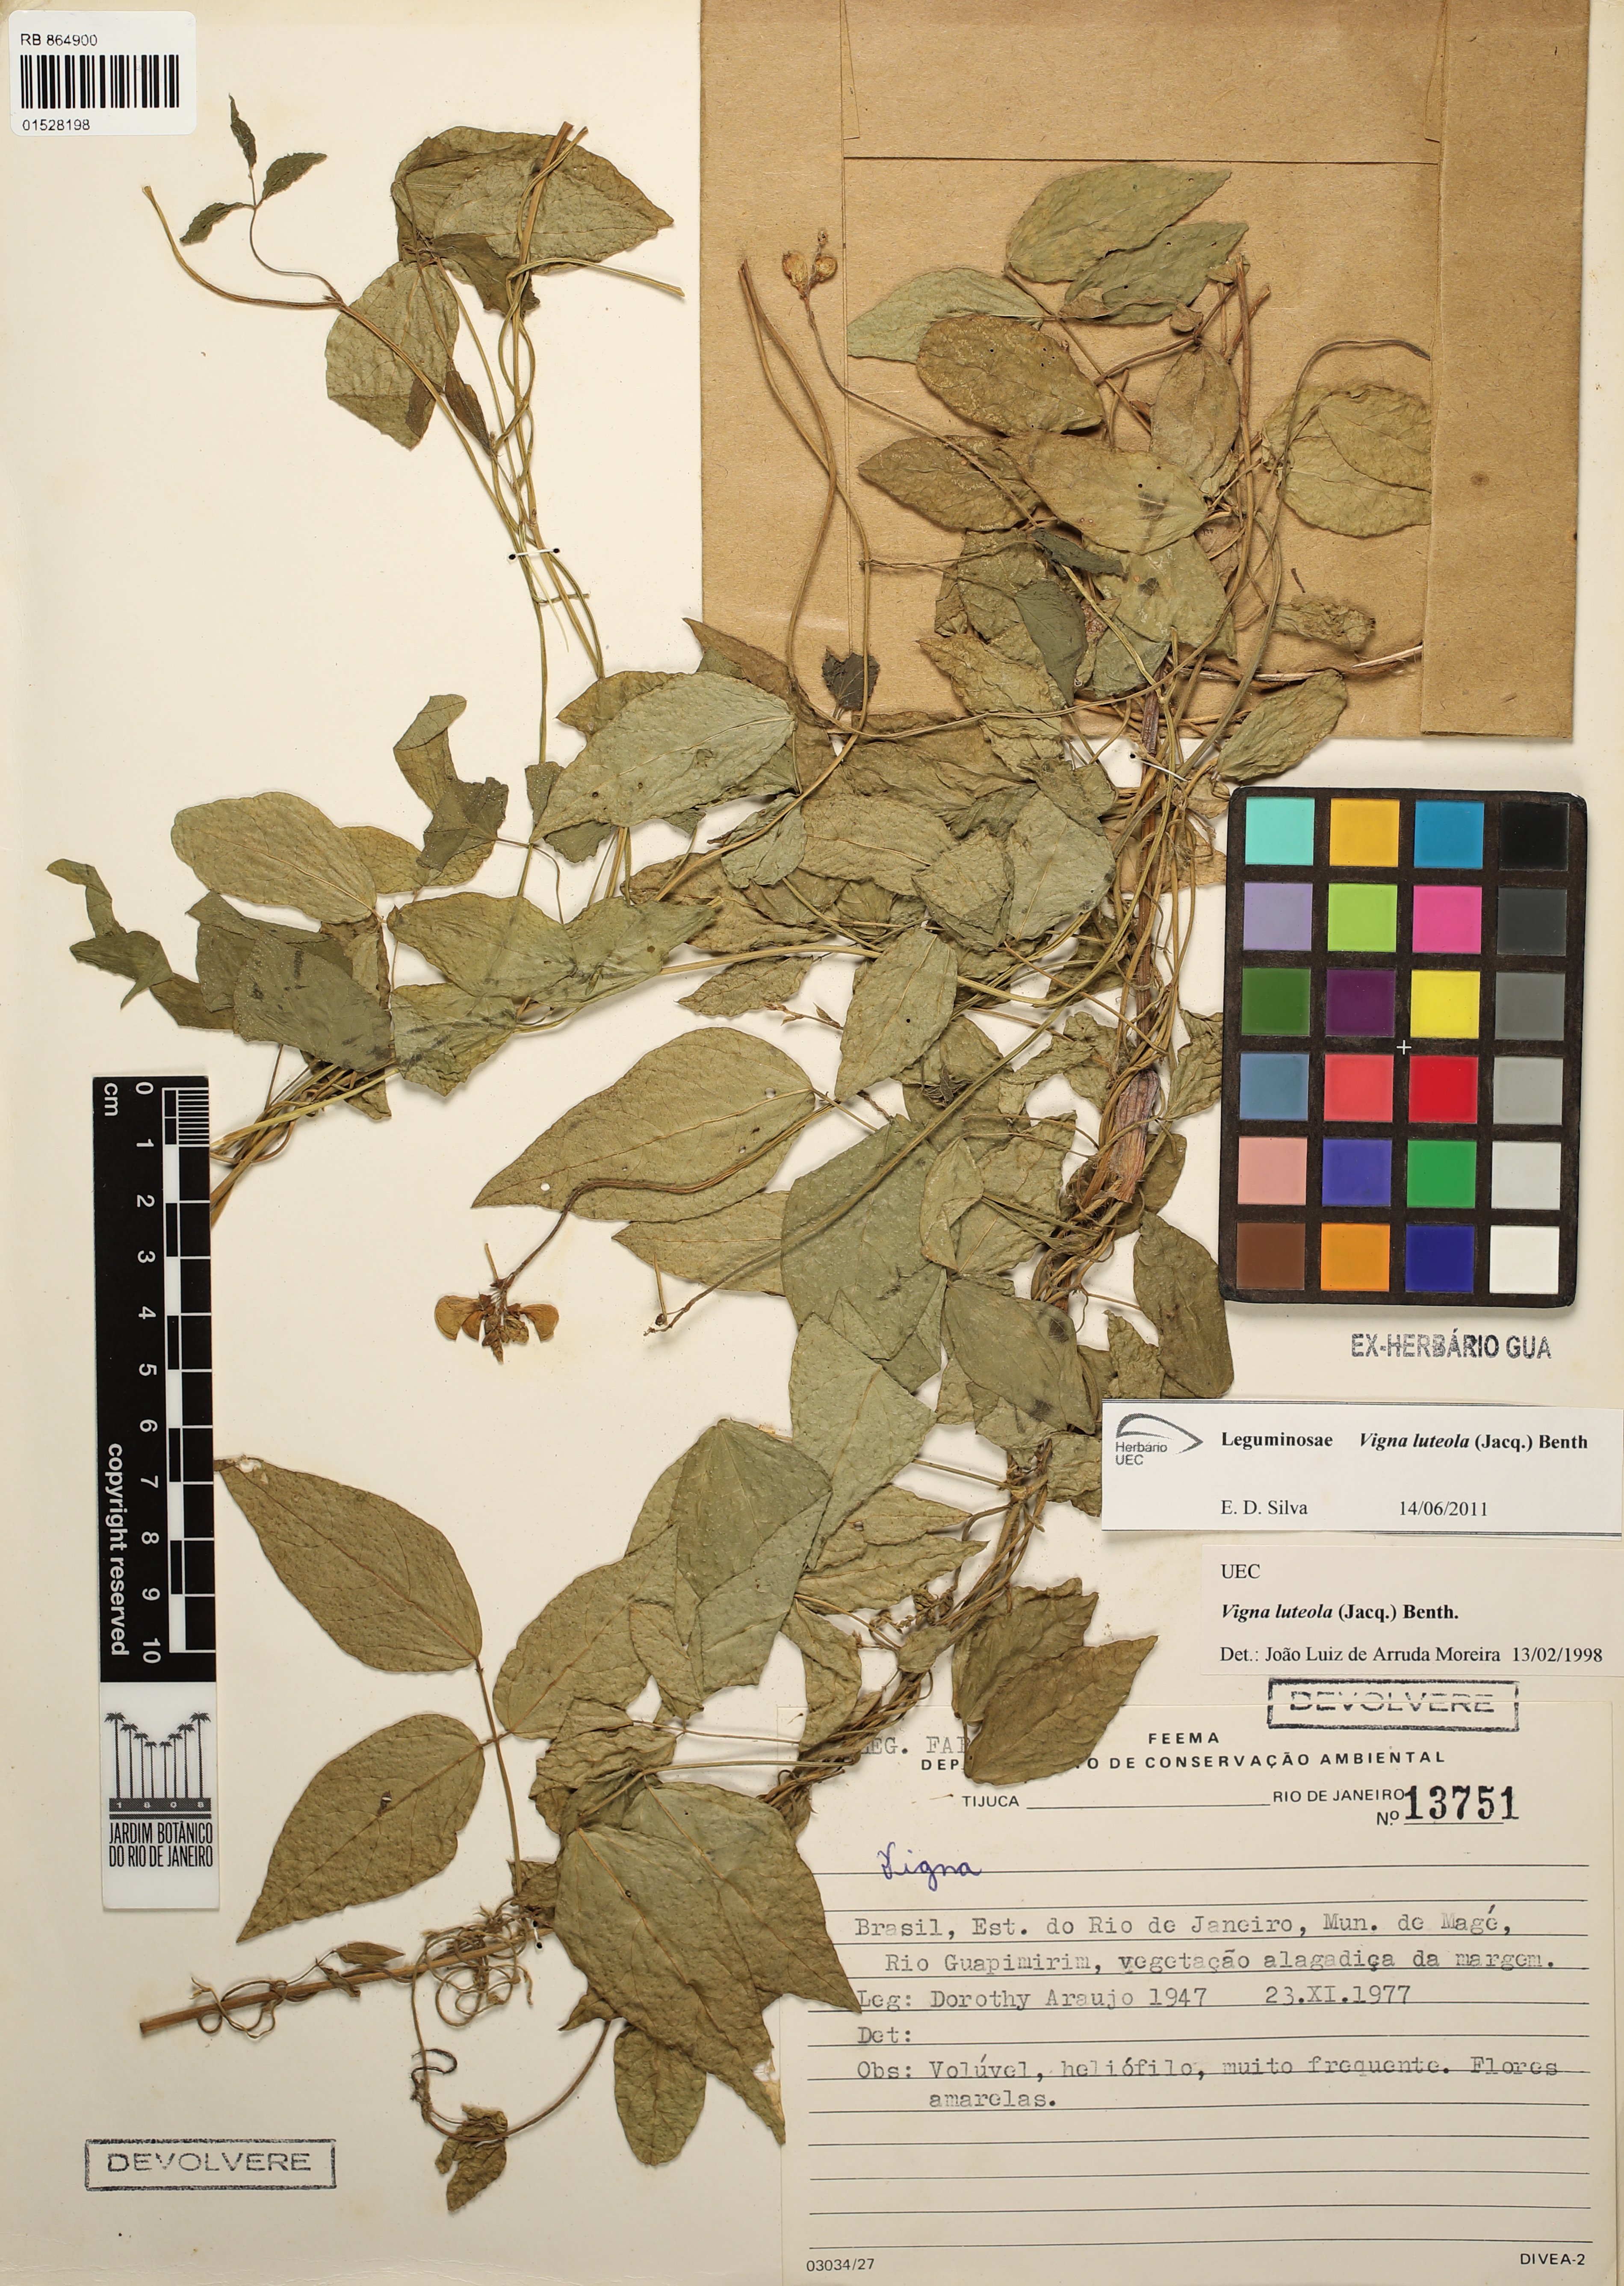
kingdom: Plantae
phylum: Tracheophyta
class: Magnoliopsida
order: Fabales
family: Fabaceae
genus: Vigna
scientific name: Vigna luteola
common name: Hairypod cowpea
